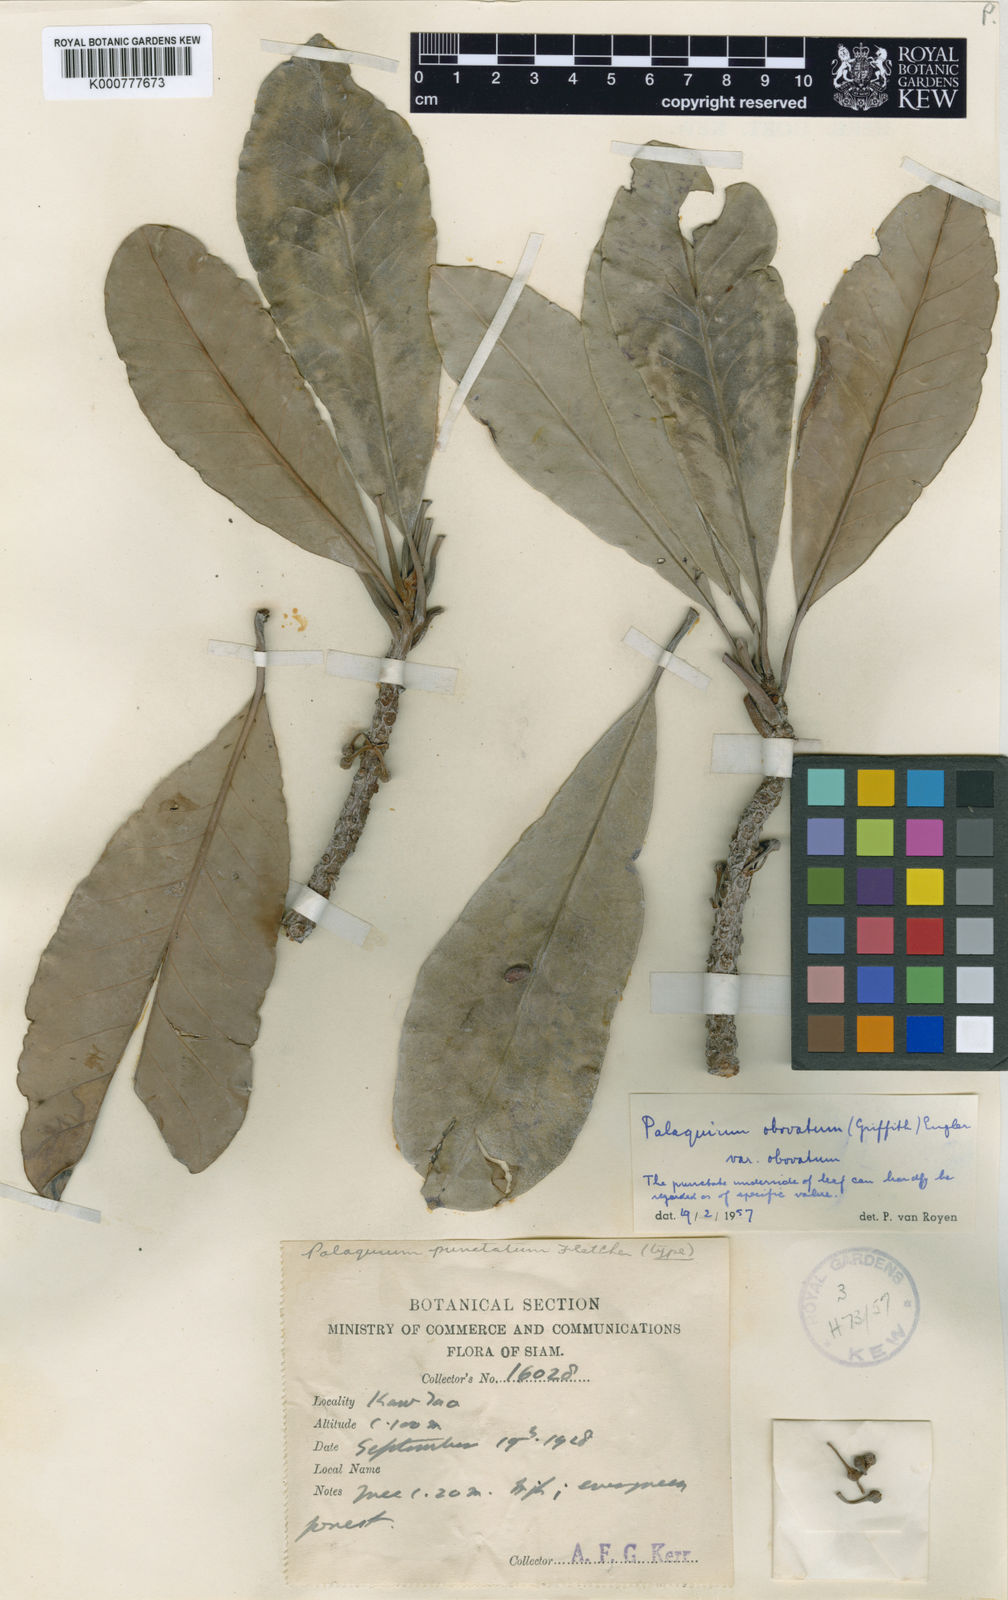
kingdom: Plantae
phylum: Tracheophyta
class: Magnoliopsida
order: Ericales
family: Sapotaceae
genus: Palaquium
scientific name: Palaquium obovatum
